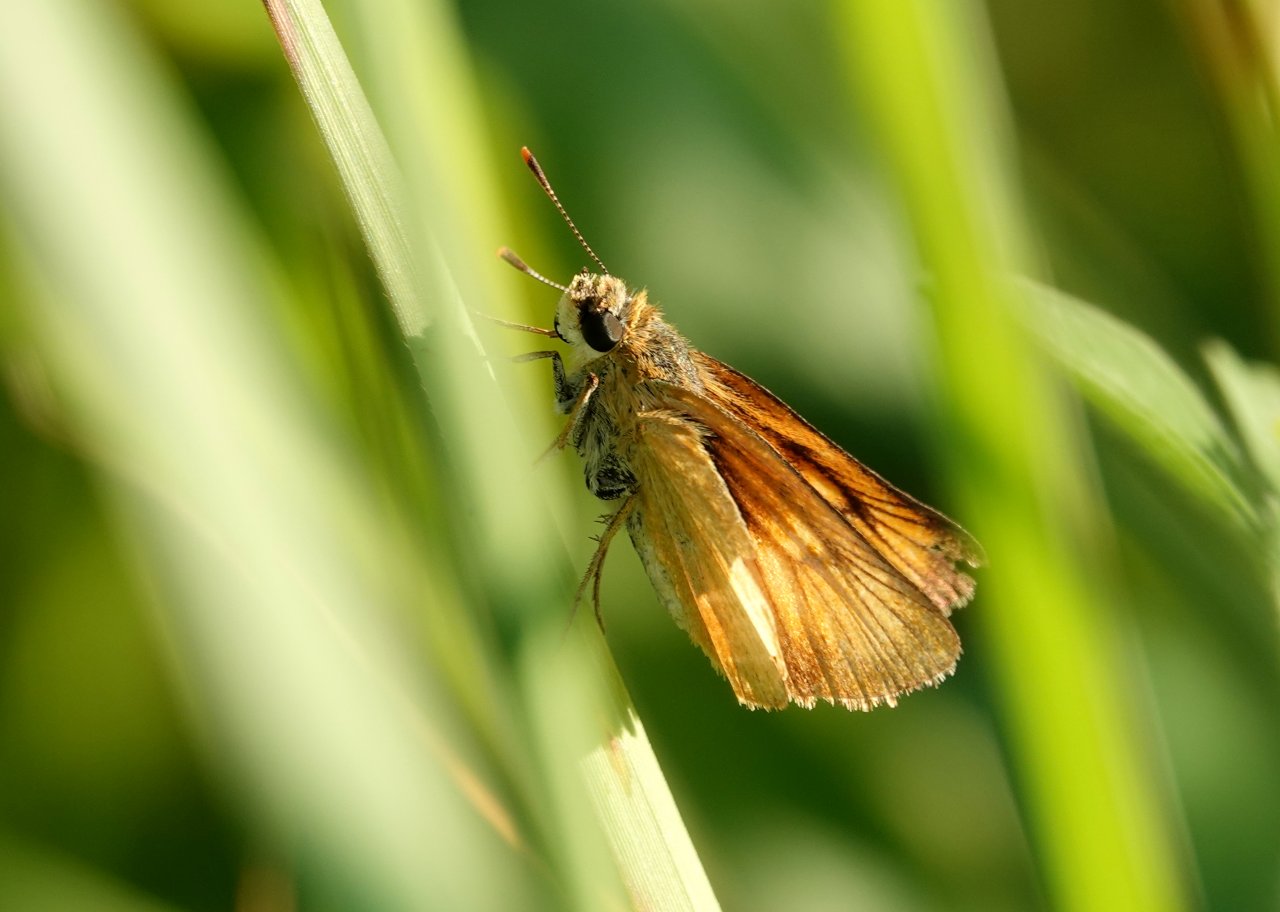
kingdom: Animalia
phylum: Arthropoda
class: Insecta
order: Lepidoptera
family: Hesperiidae
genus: Atrytone
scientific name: Atrytone delaware
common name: Delaware Skipper
